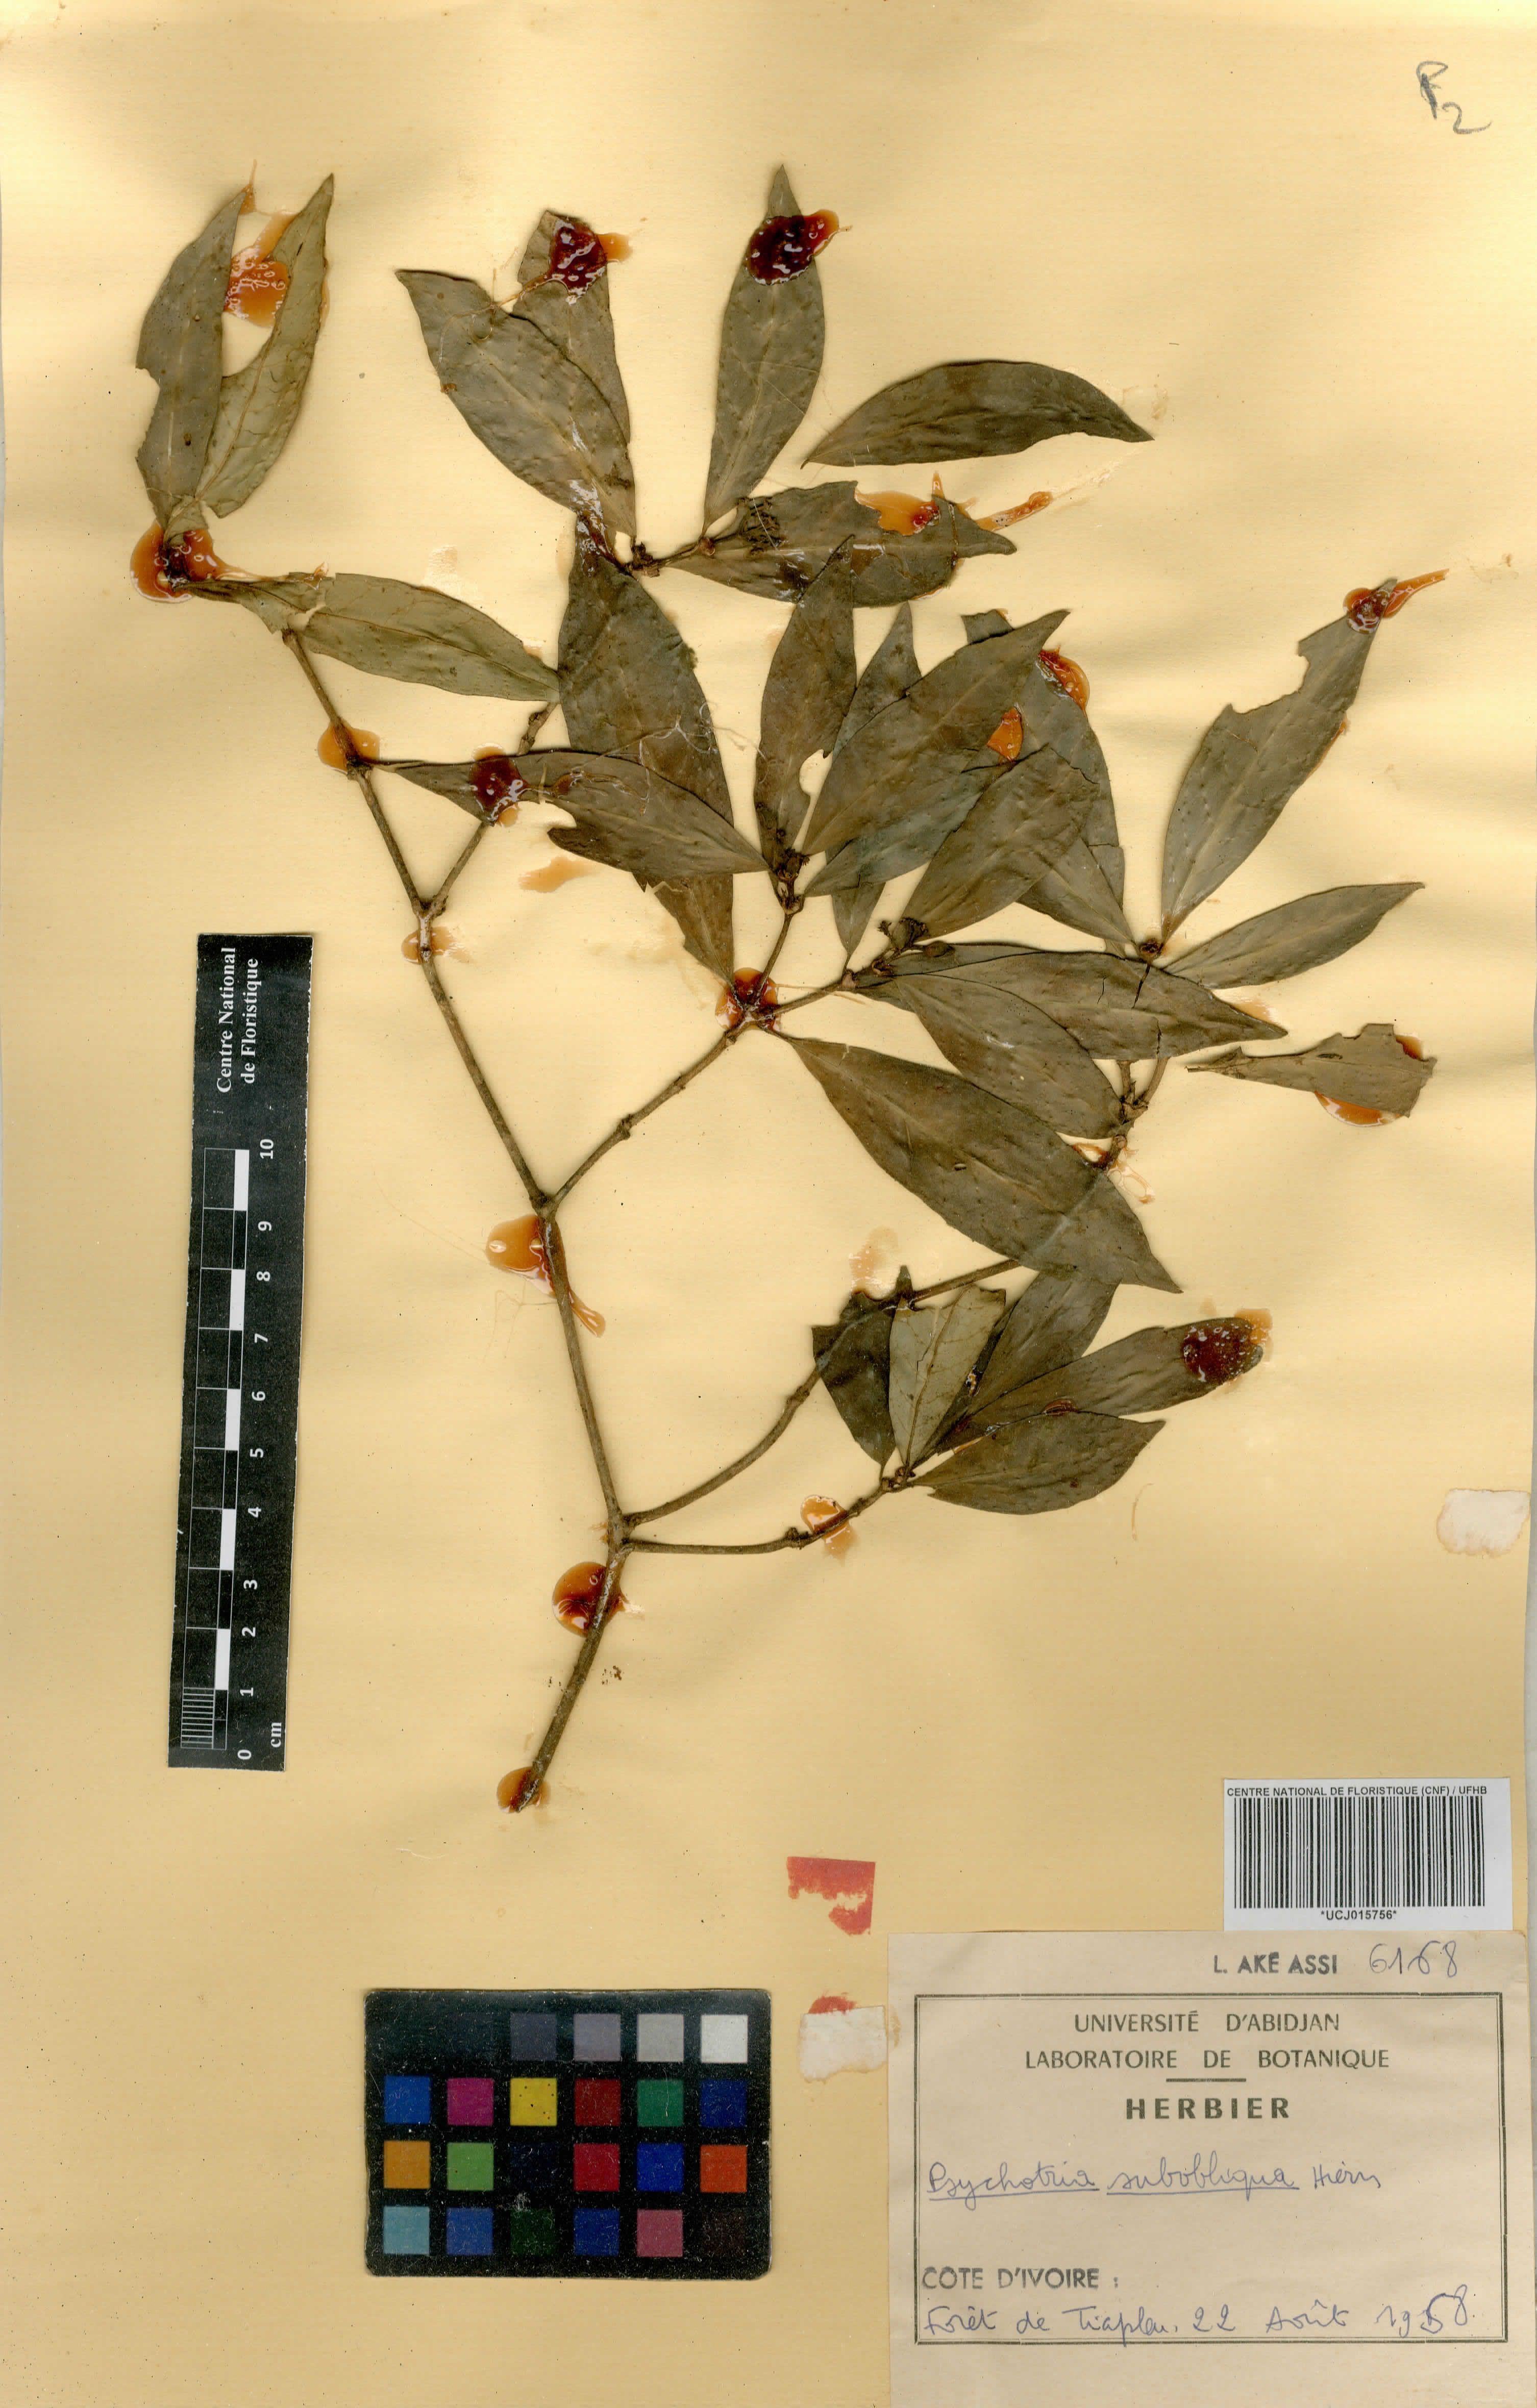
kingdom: Plantae
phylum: Tracheophyta
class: Magnoliopsida
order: Gentianales
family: Rubiaceae
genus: Psychotria
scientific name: Psychotria subobliqua
